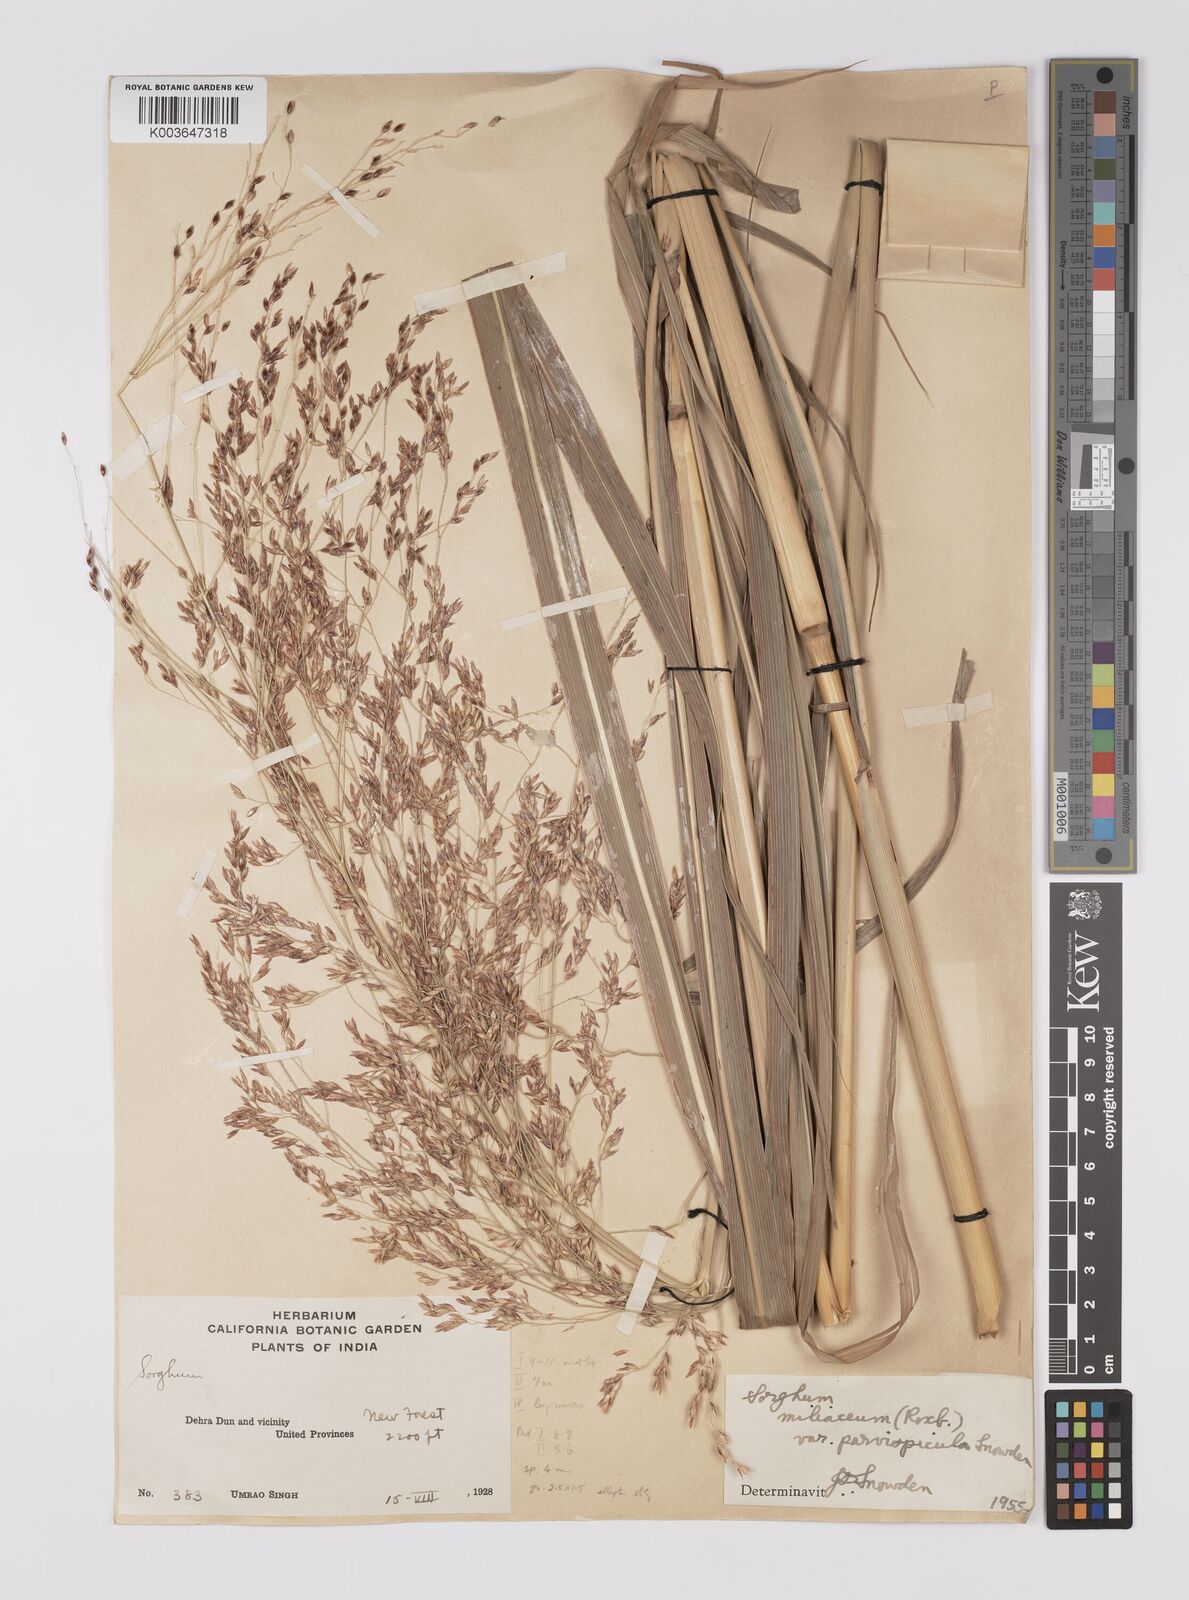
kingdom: Plantae
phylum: Tracheophyta
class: Liliopsida
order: Poales
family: Poaceae
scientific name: Poaceae
